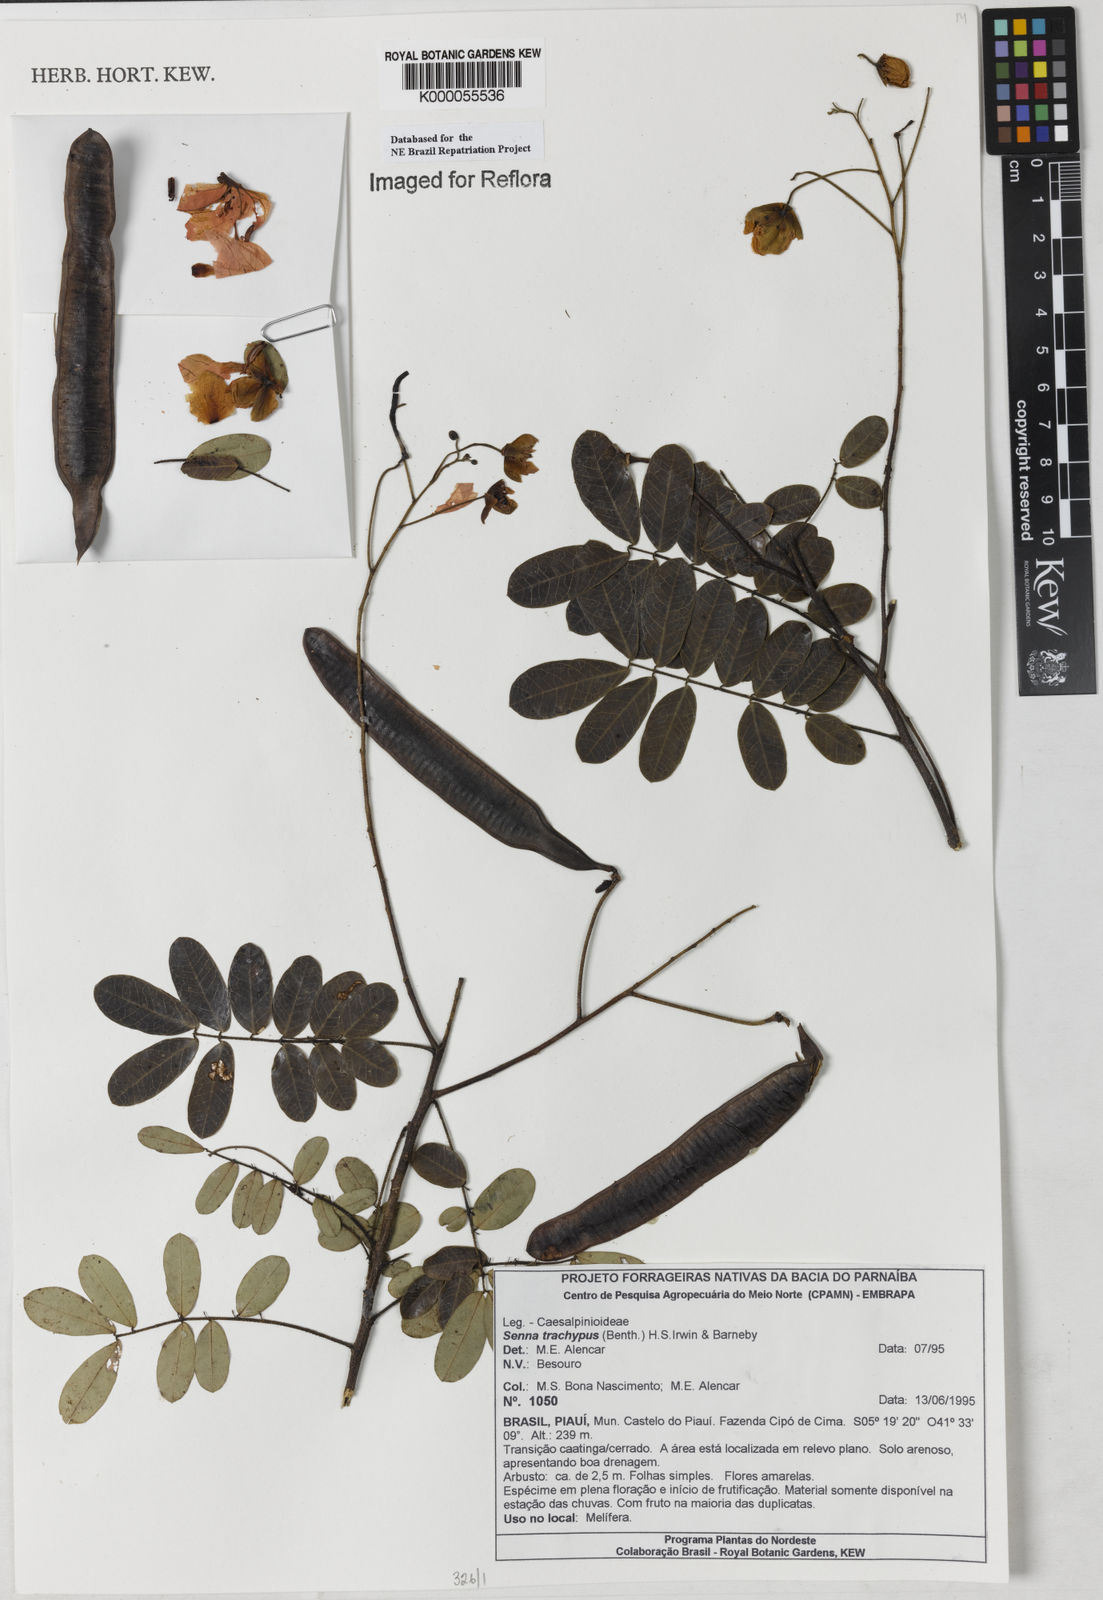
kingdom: Plantae
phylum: Tracheophyta
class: Magnoliopsida
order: Fabales
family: Fabaceae
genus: Senna
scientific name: Senna trachypus
